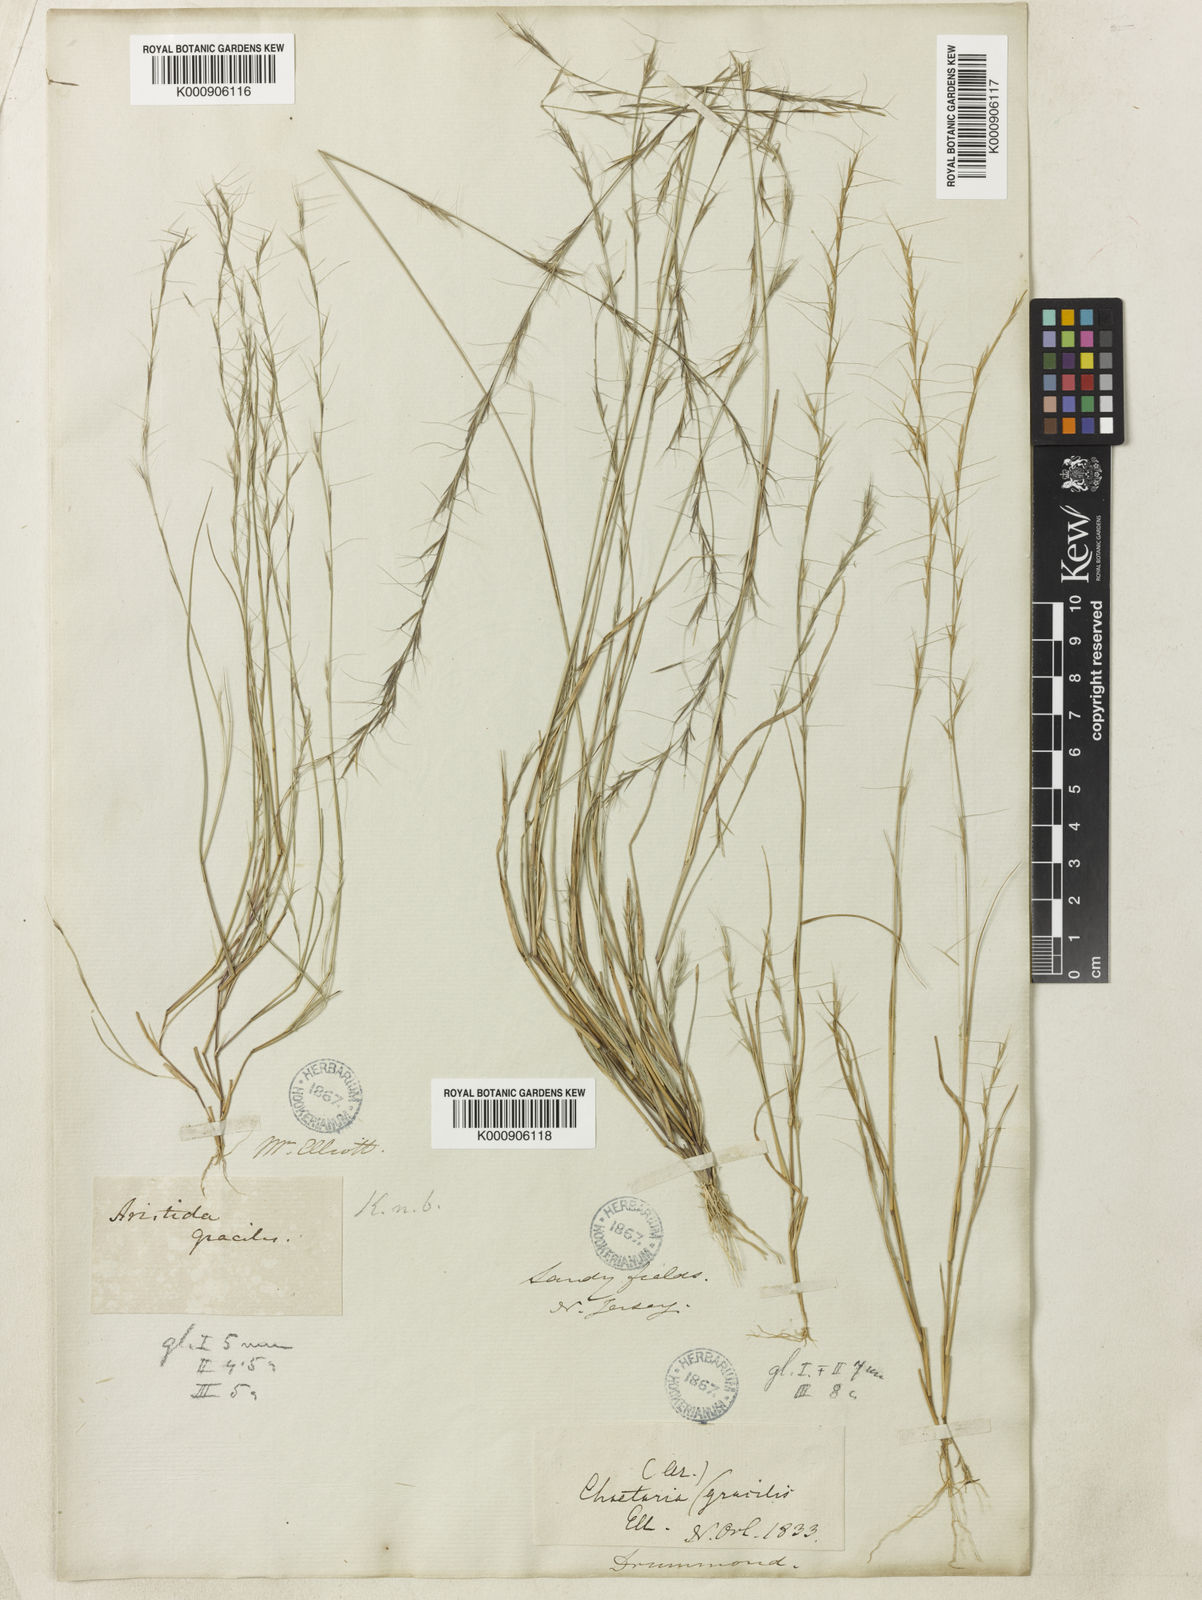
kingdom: Plantae
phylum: Tracheophyta
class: Liliopsida
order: Poales
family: Poaceae
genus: Aristida
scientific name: Aristida longespica
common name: Long-spiked triple-awned grass
